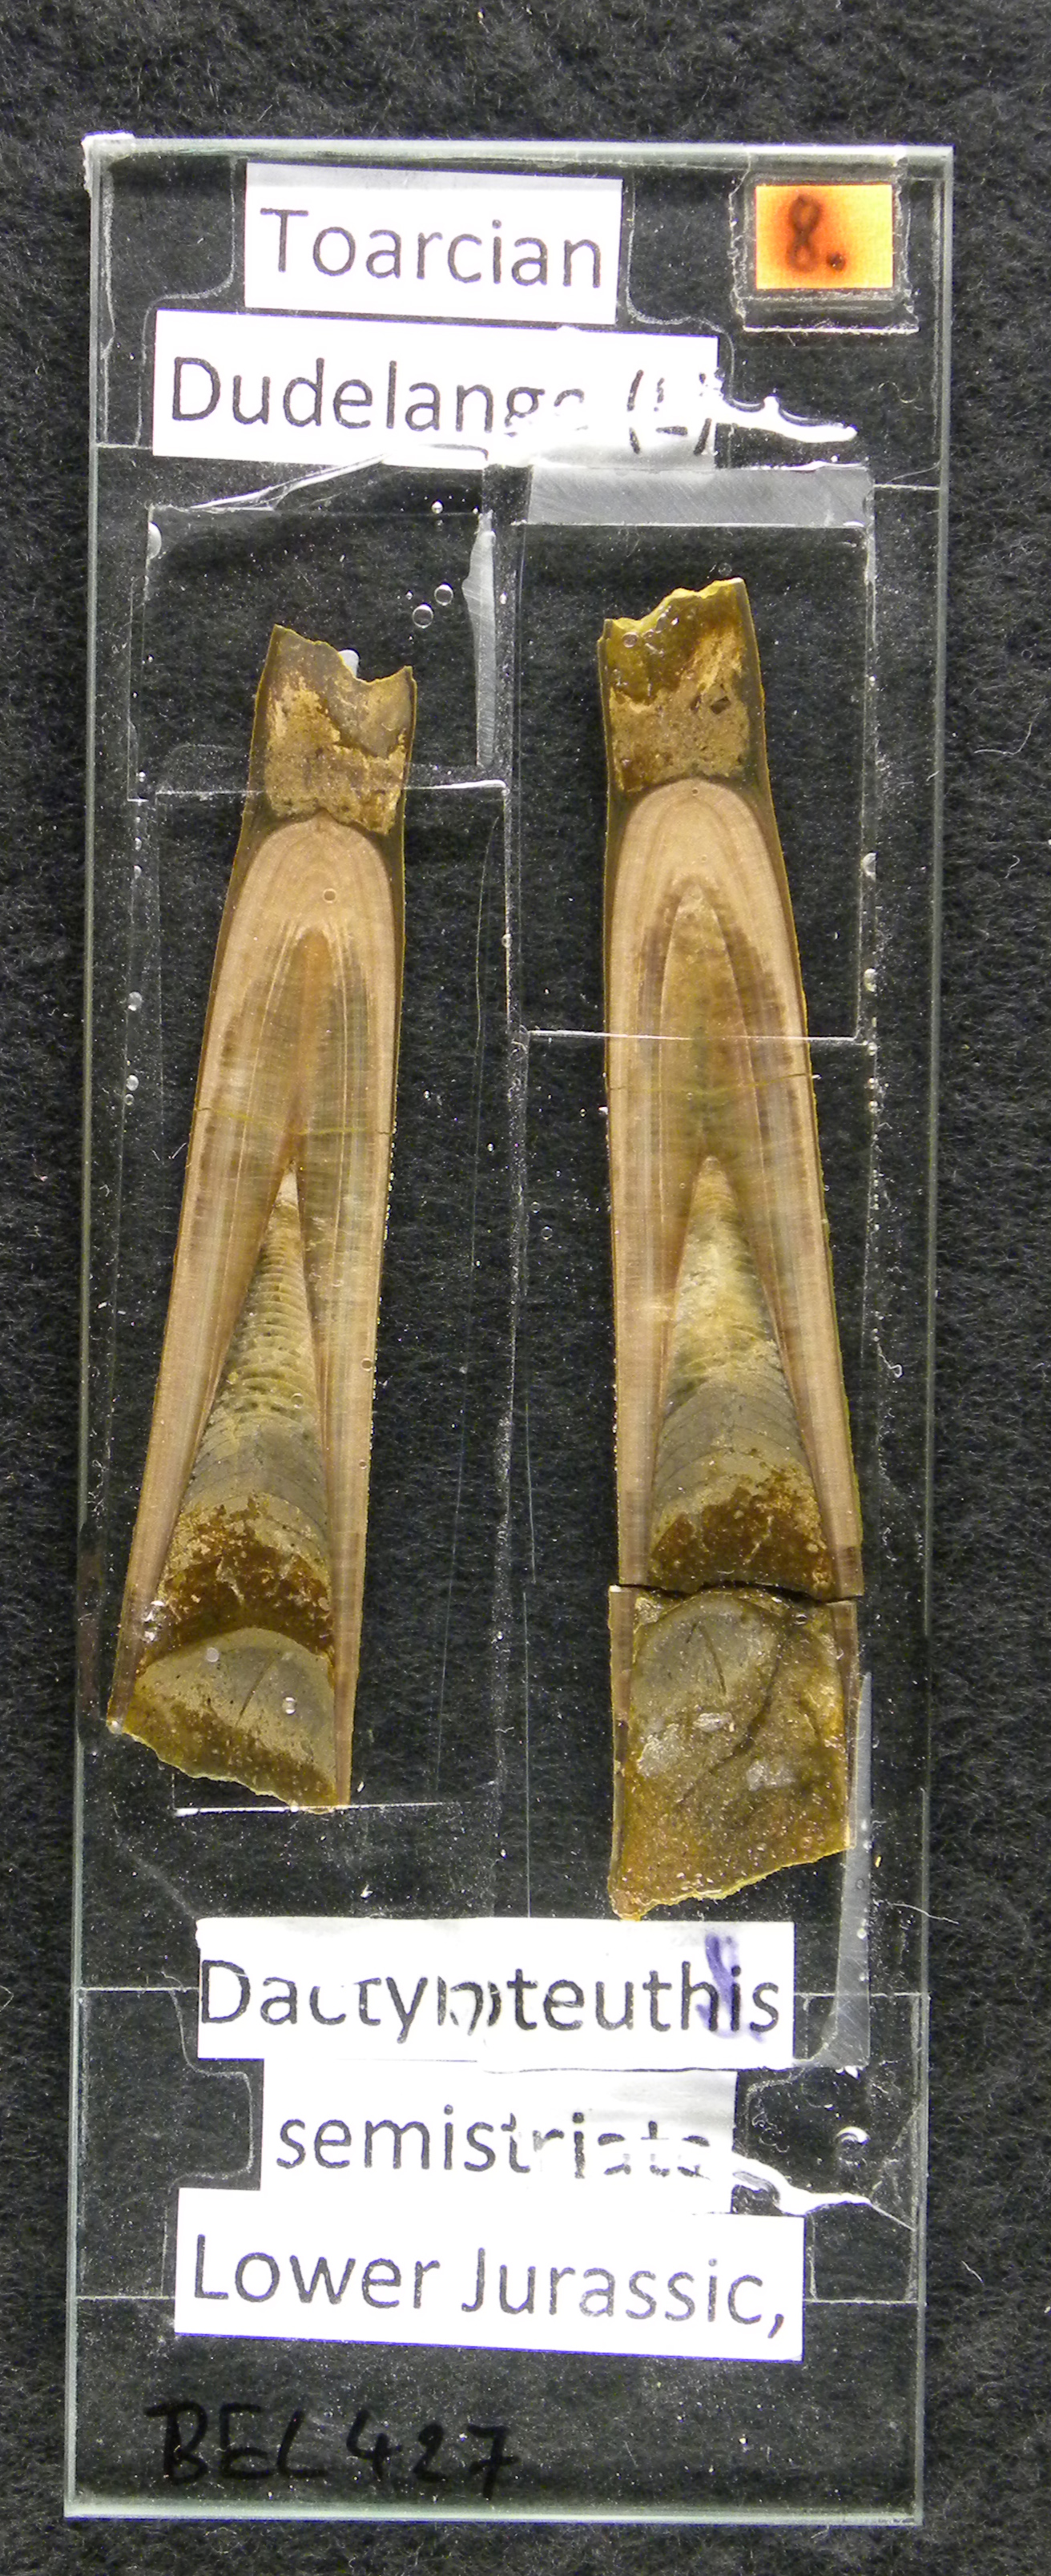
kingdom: Animalia
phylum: Mollusca
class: Cephalopoda
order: Belemnitida
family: Megateuthididae
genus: Dactyloteuthis
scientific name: Dactyloteuthis semistriata
